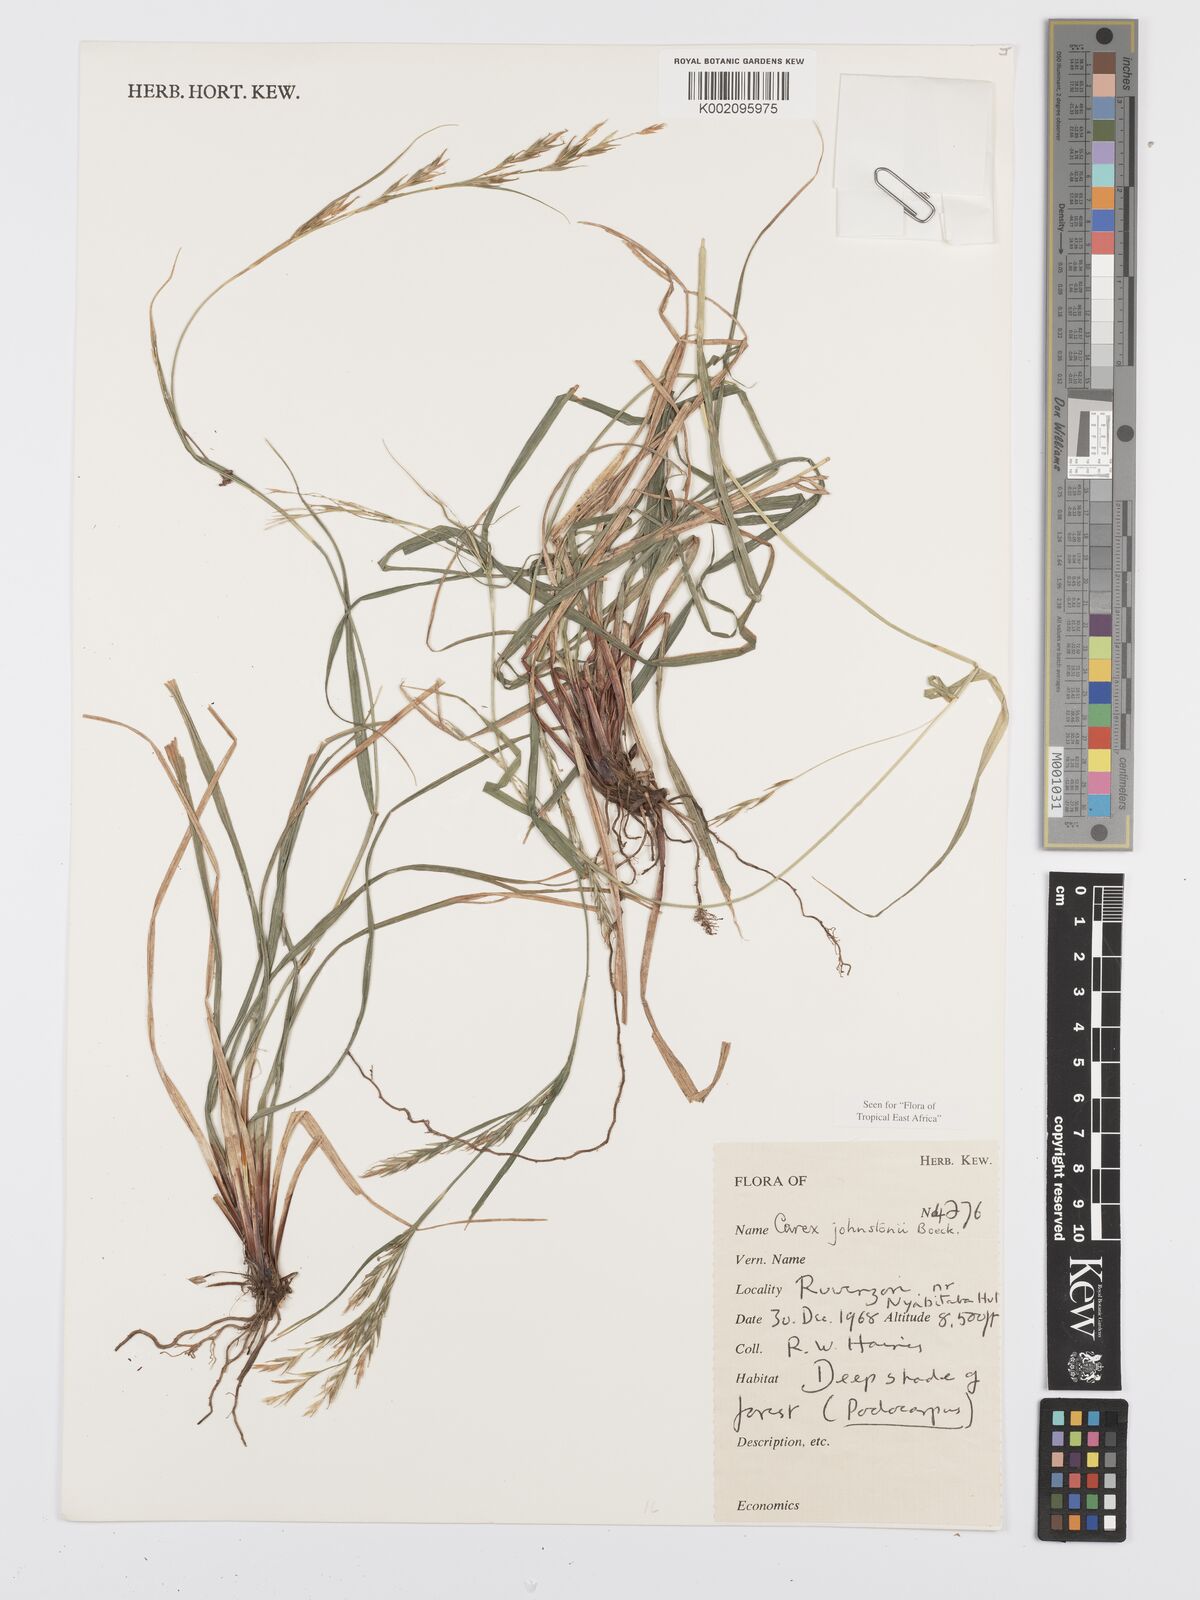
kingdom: Plantae
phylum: Tracheophyta
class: Liliopsida
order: Poales
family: Cyperaceae
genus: Carex
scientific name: Carex johnstonii
